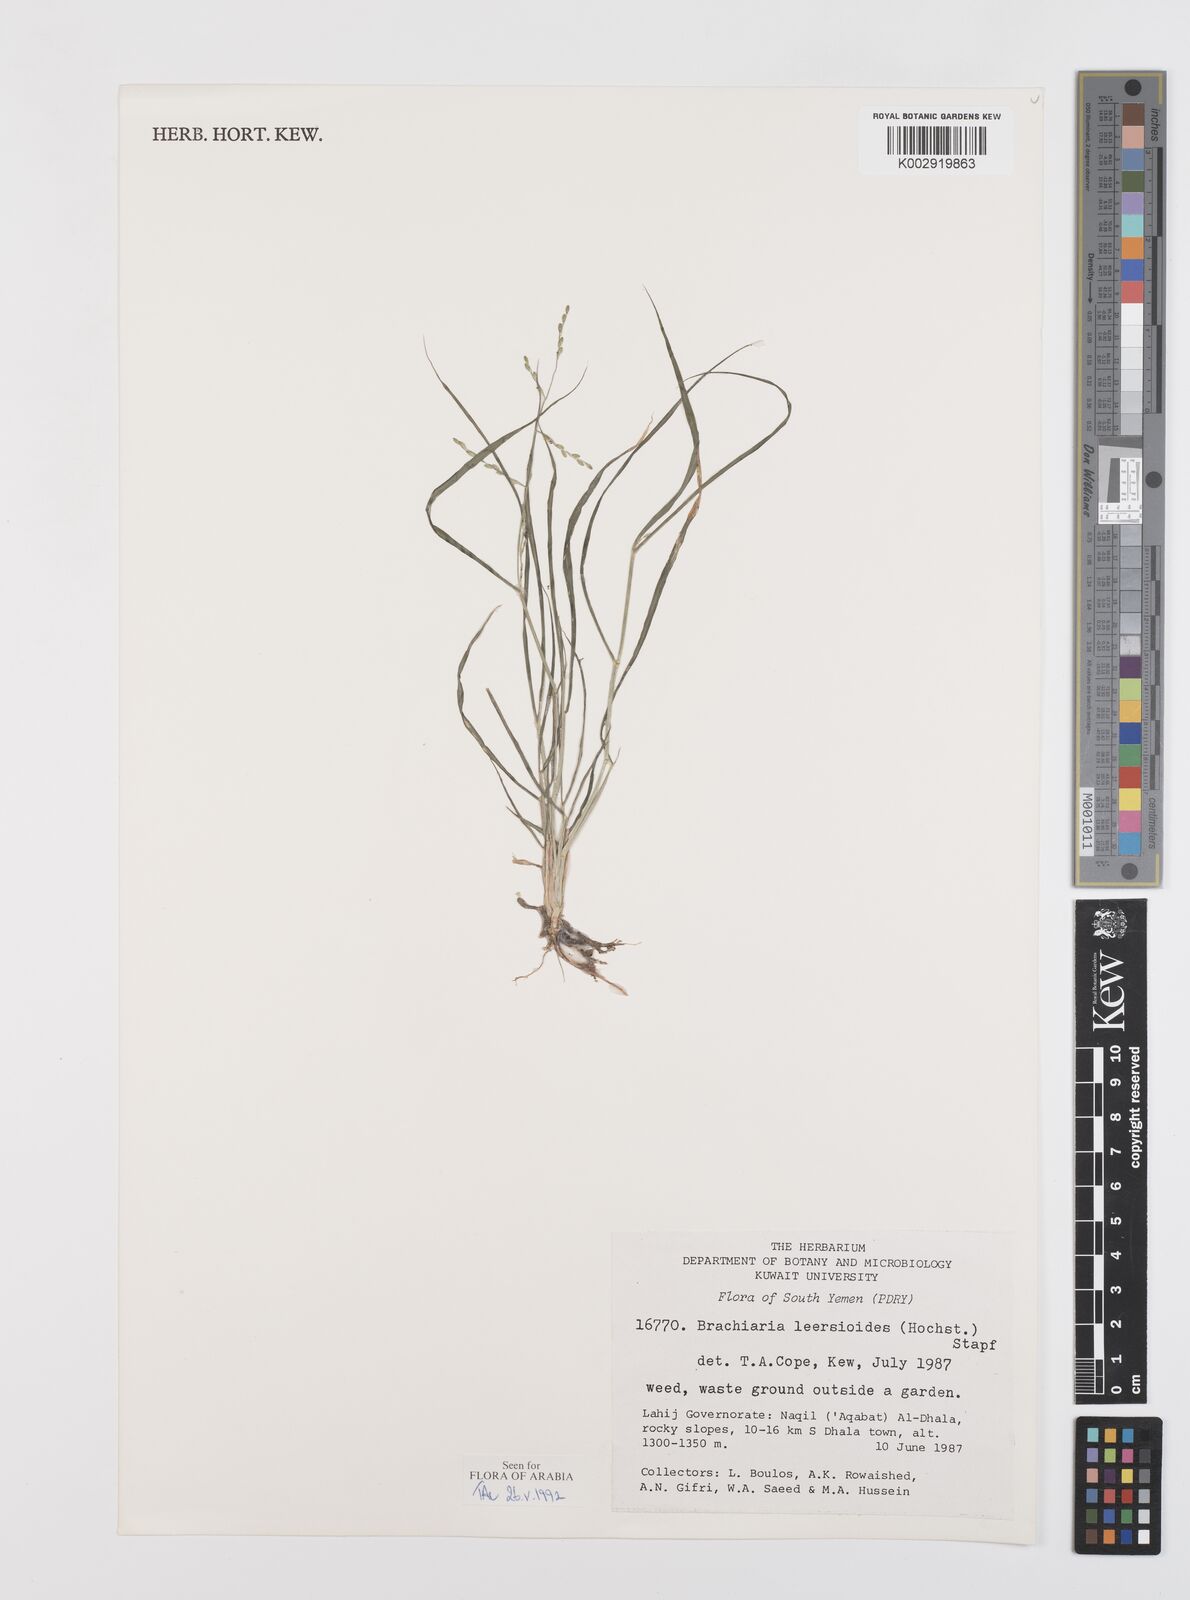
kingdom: Plantae
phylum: Tracheophyta
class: Liliopsida
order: Poales
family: Poaceae
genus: Urochloa
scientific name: Urochloa leersioides
